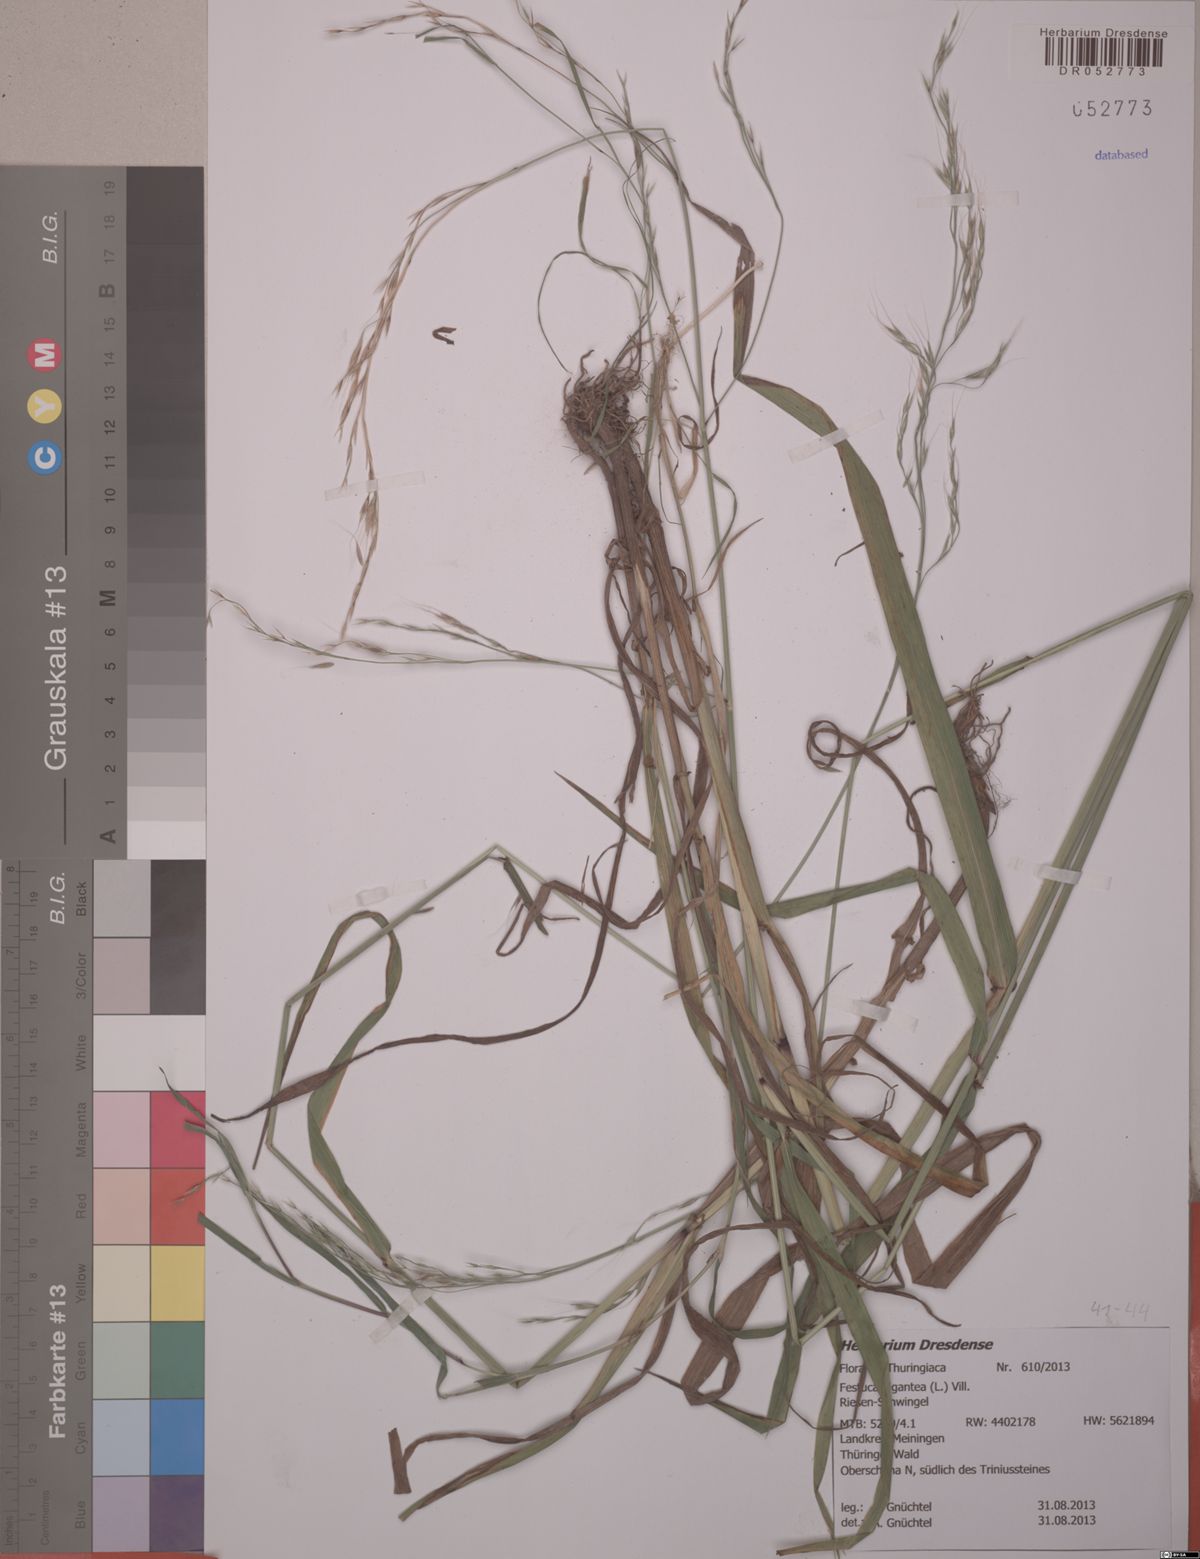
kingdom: Plantae
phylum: Tracheophyta
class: Liliopsida
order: Poales
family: Poaceae
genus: Lolium
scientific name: Lolium giganteum
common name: Giant fescue
